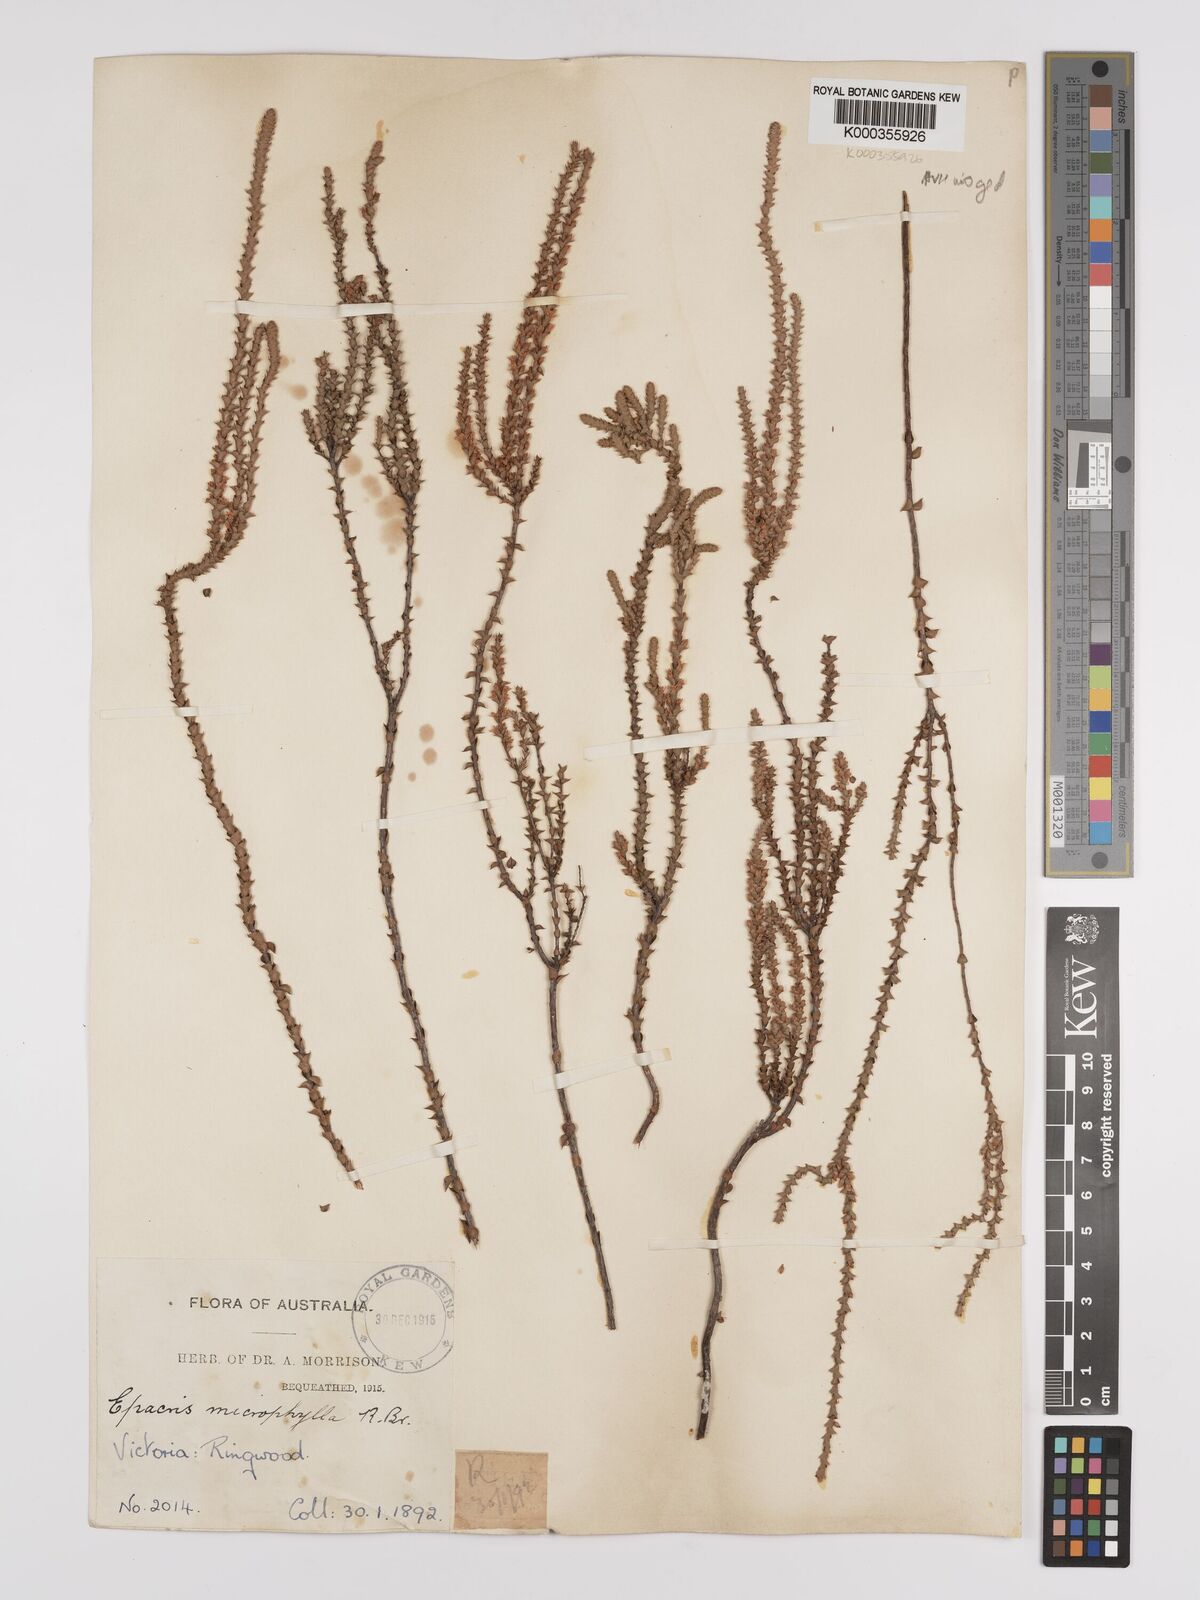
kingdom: Plantae
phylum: Tracheophyta
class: Magnoliopsida
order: Ericales
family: Ericaceae
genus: Epacris
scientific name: Epacris
